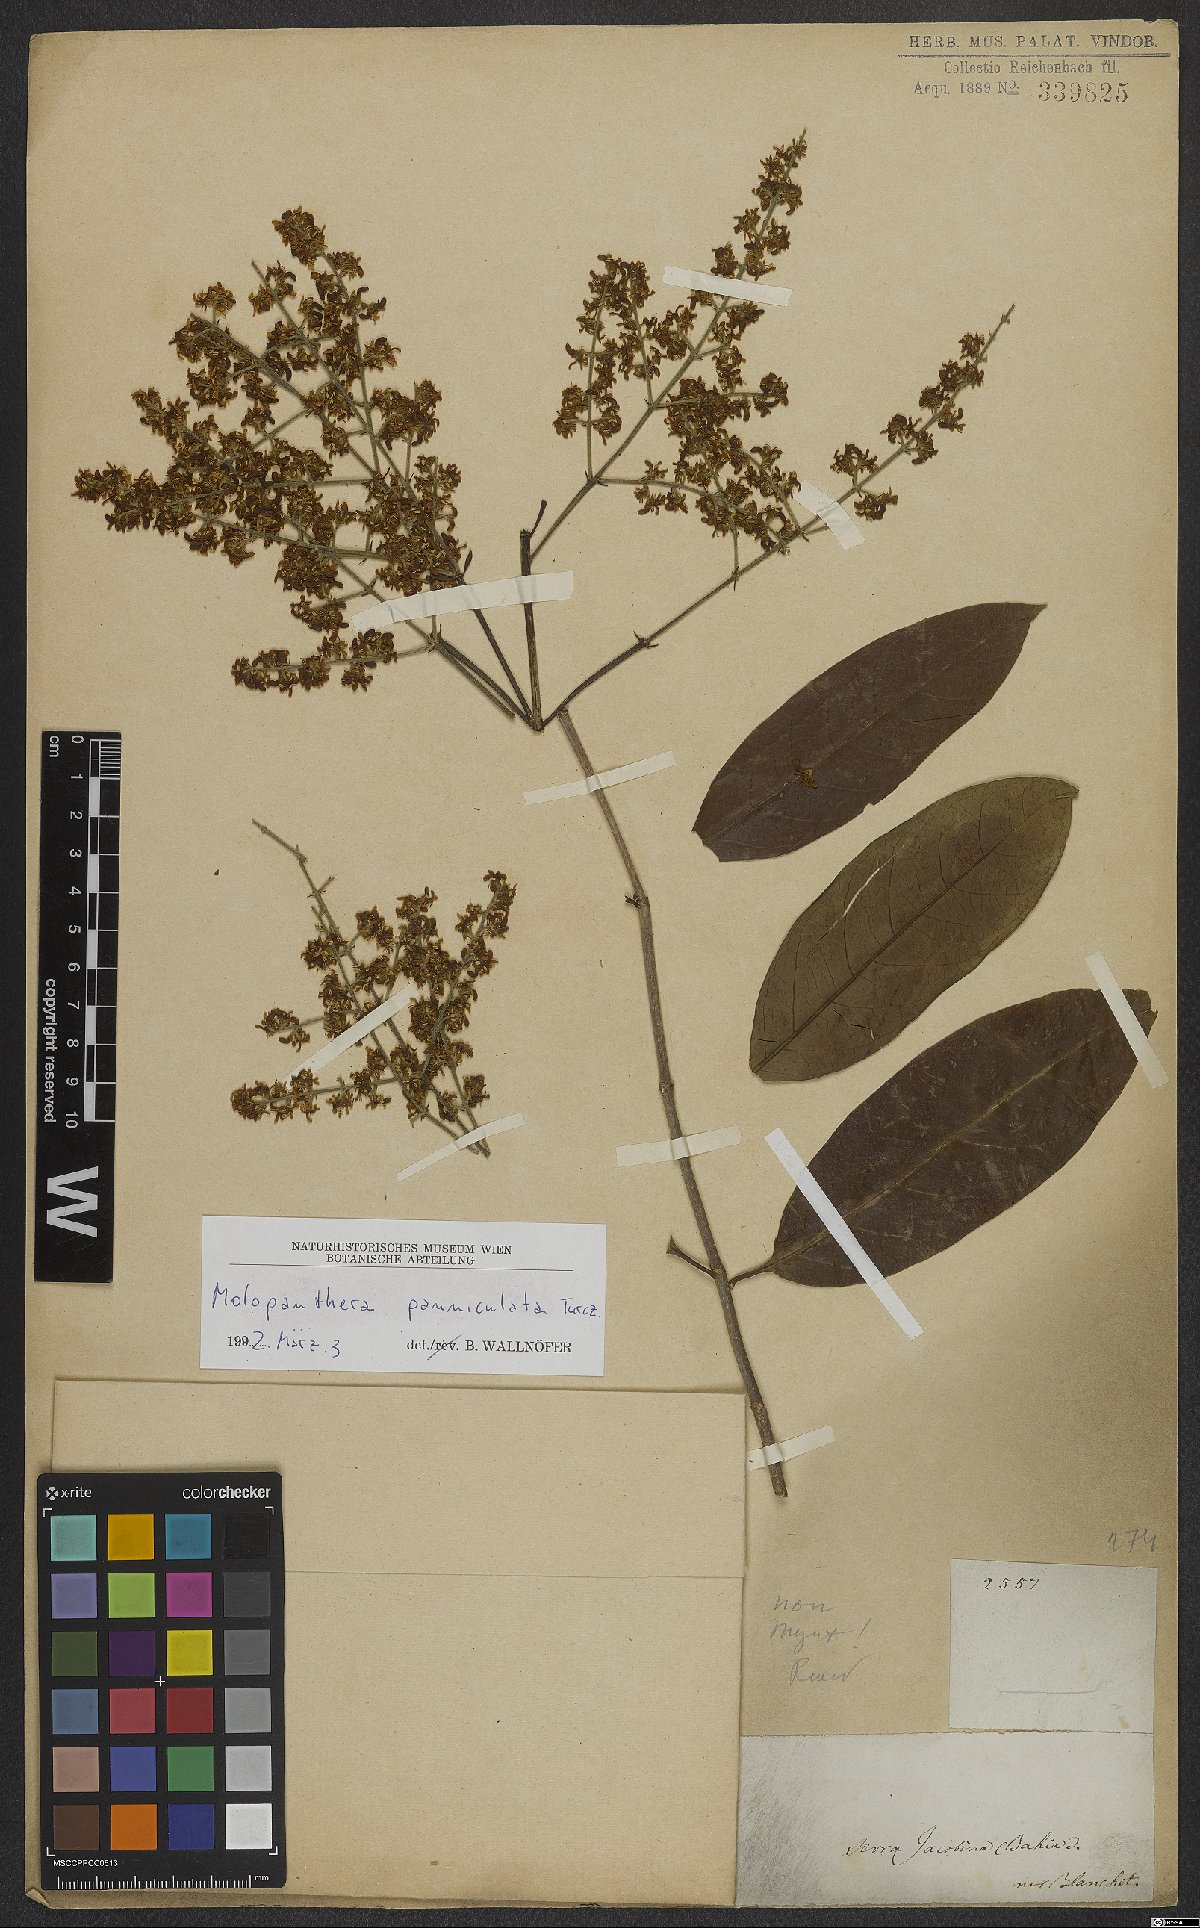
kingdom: Plantae
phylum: Tracheophyta
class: Magnoliopsida
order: Gentianales
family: Rubiaceae
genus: Molopanthera
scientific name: Molopanthera paniculata
